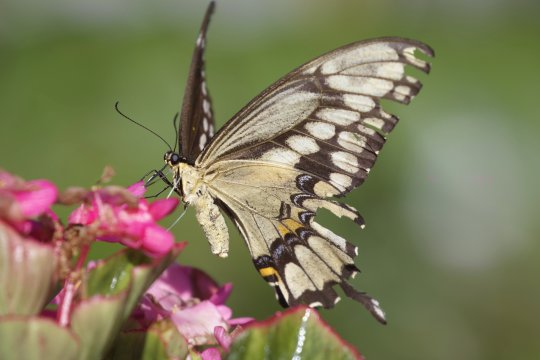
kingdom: Animalia
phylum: Arthropoda
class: Insecta
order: Lepidoptera
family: Papilionidae
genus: Papilio
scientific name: Papilio cresphontes
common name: Eastern Giant Swallowtail
